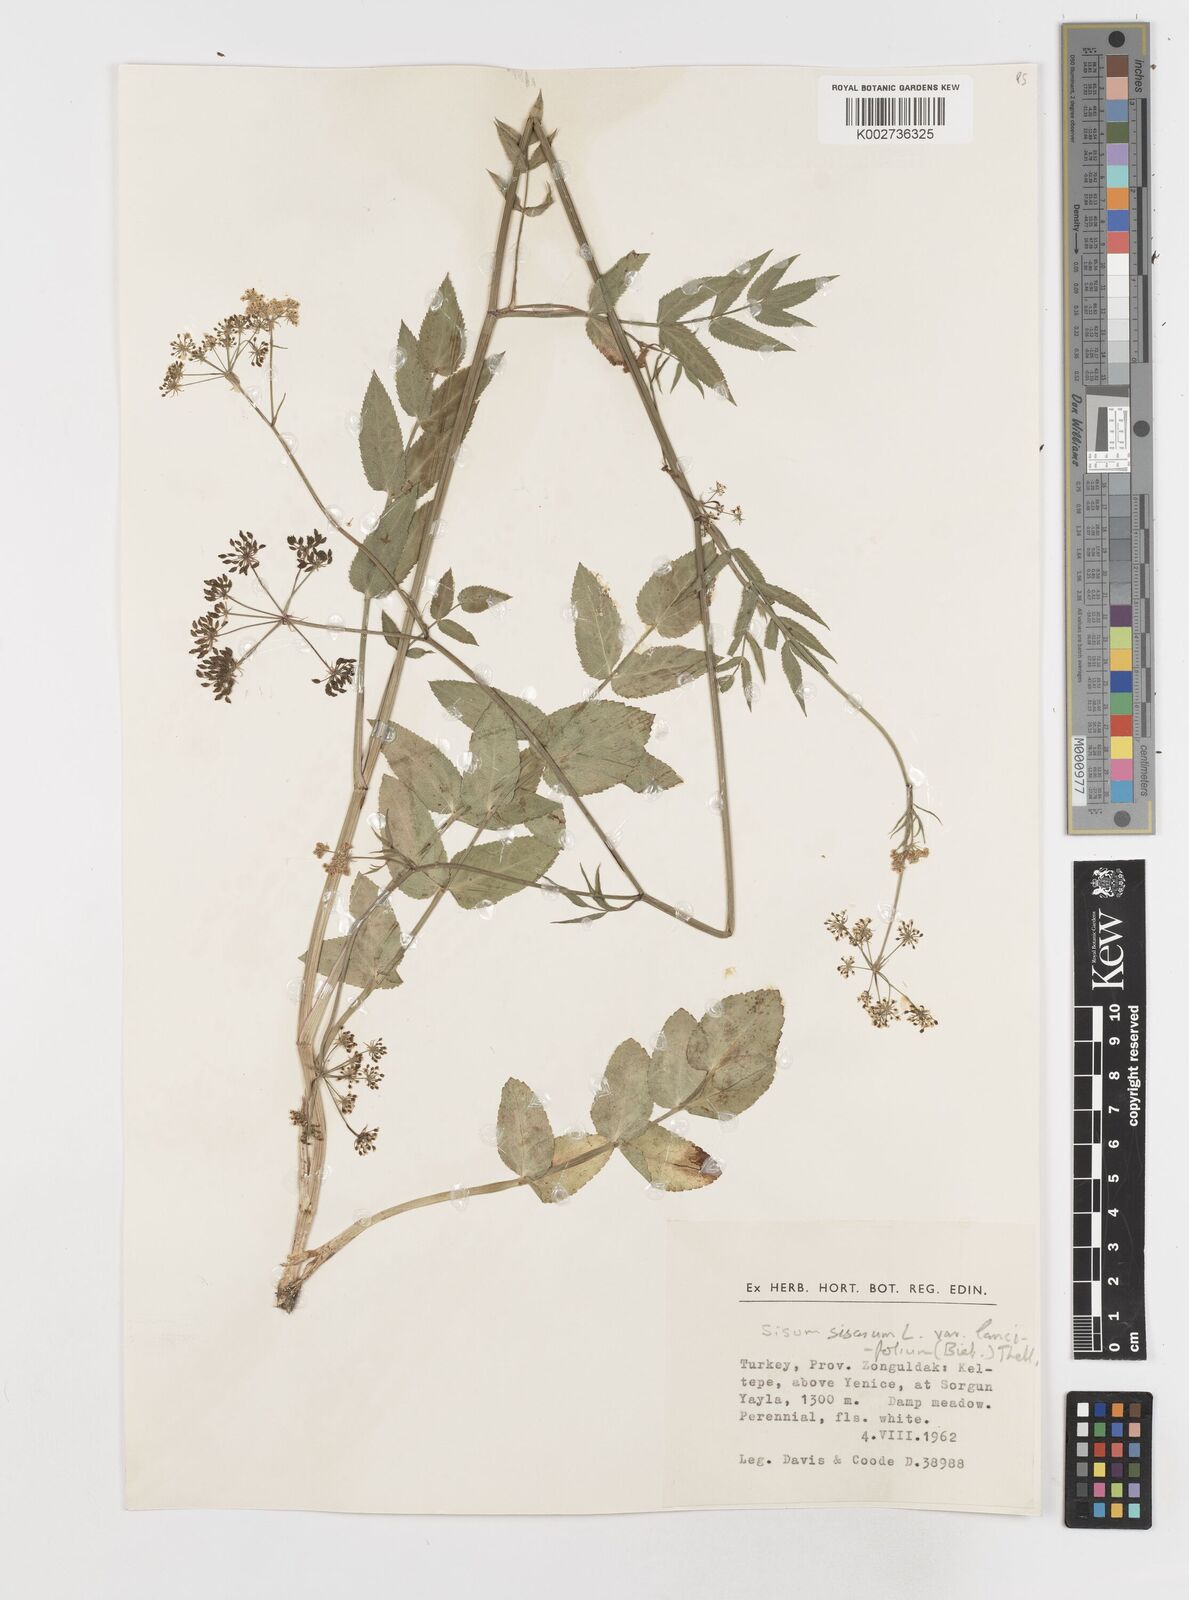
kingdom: Plantae
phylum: Tracheophyta
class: Magnoliopsida
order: Apiales
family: Apiaceae
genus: Sium
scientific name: Sium sisarum
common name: Skirret
